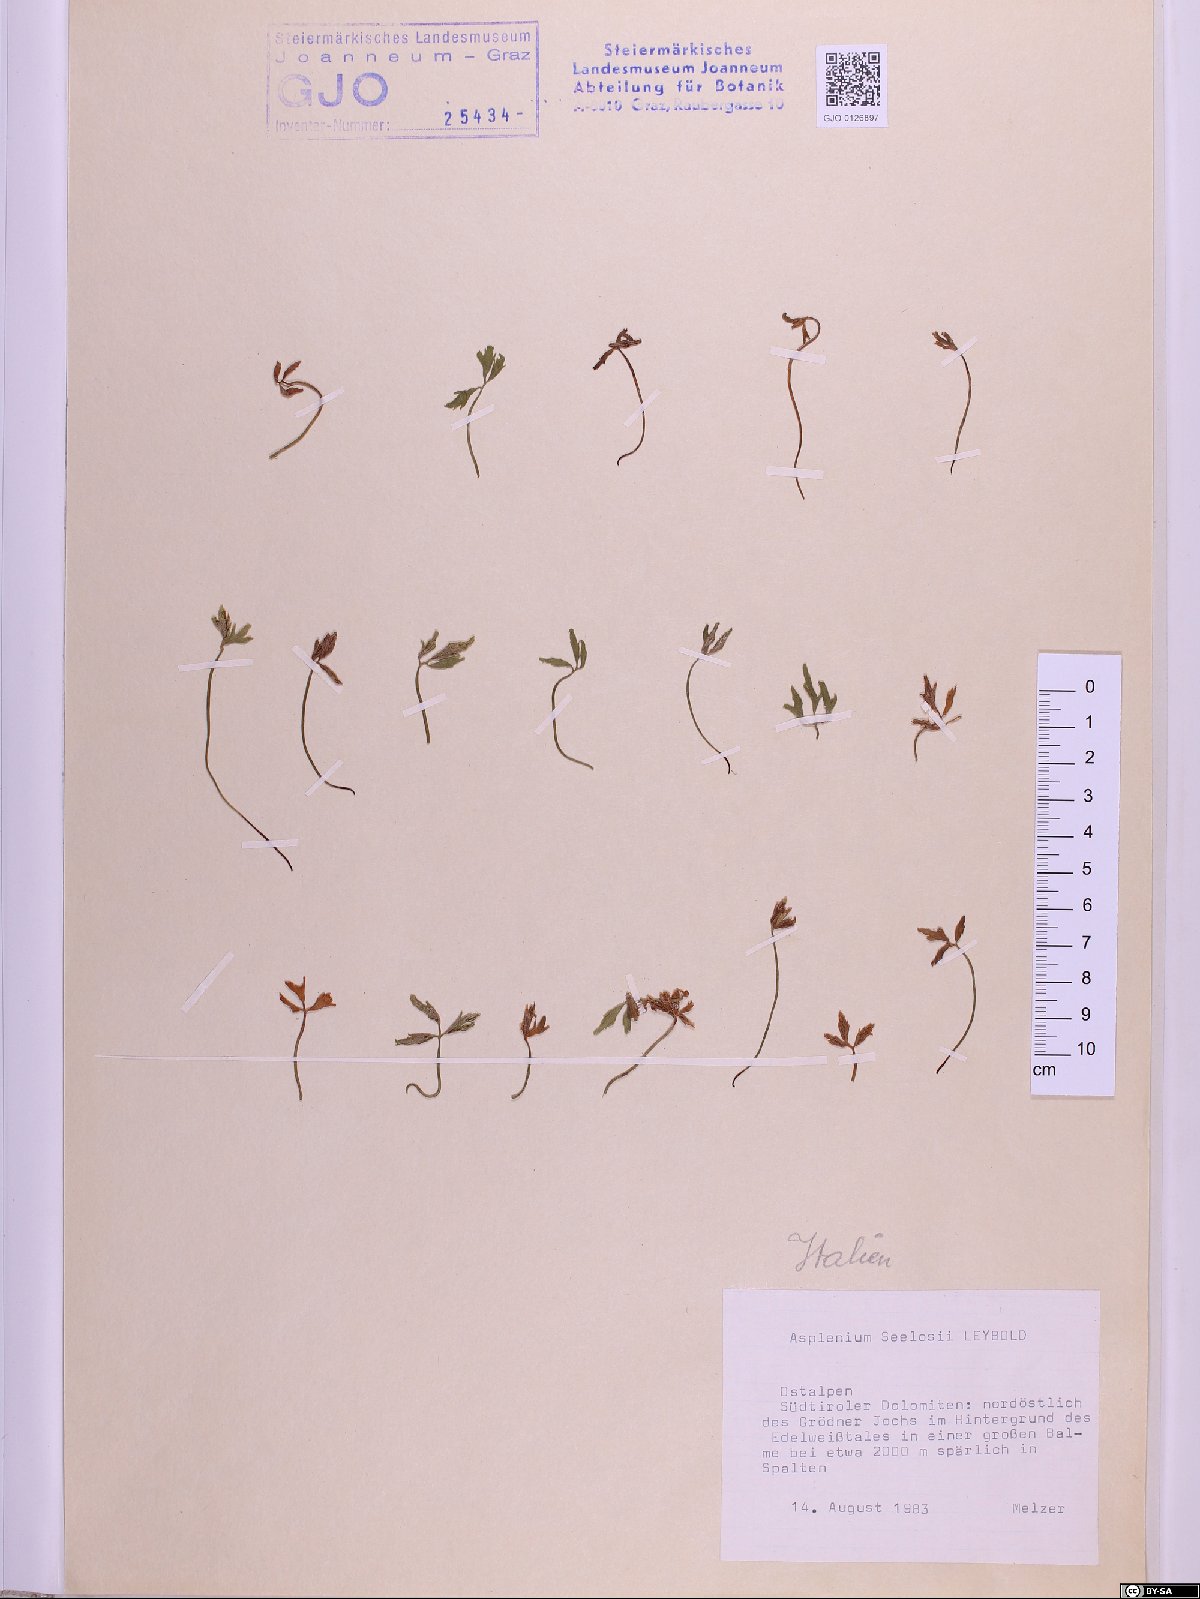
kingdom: Plantae
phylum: Tracheophyta
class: Polypodiopsida
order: Polypodiales
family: Aspleniaceae
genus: Asplenium
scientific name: Asplenium seelosii
